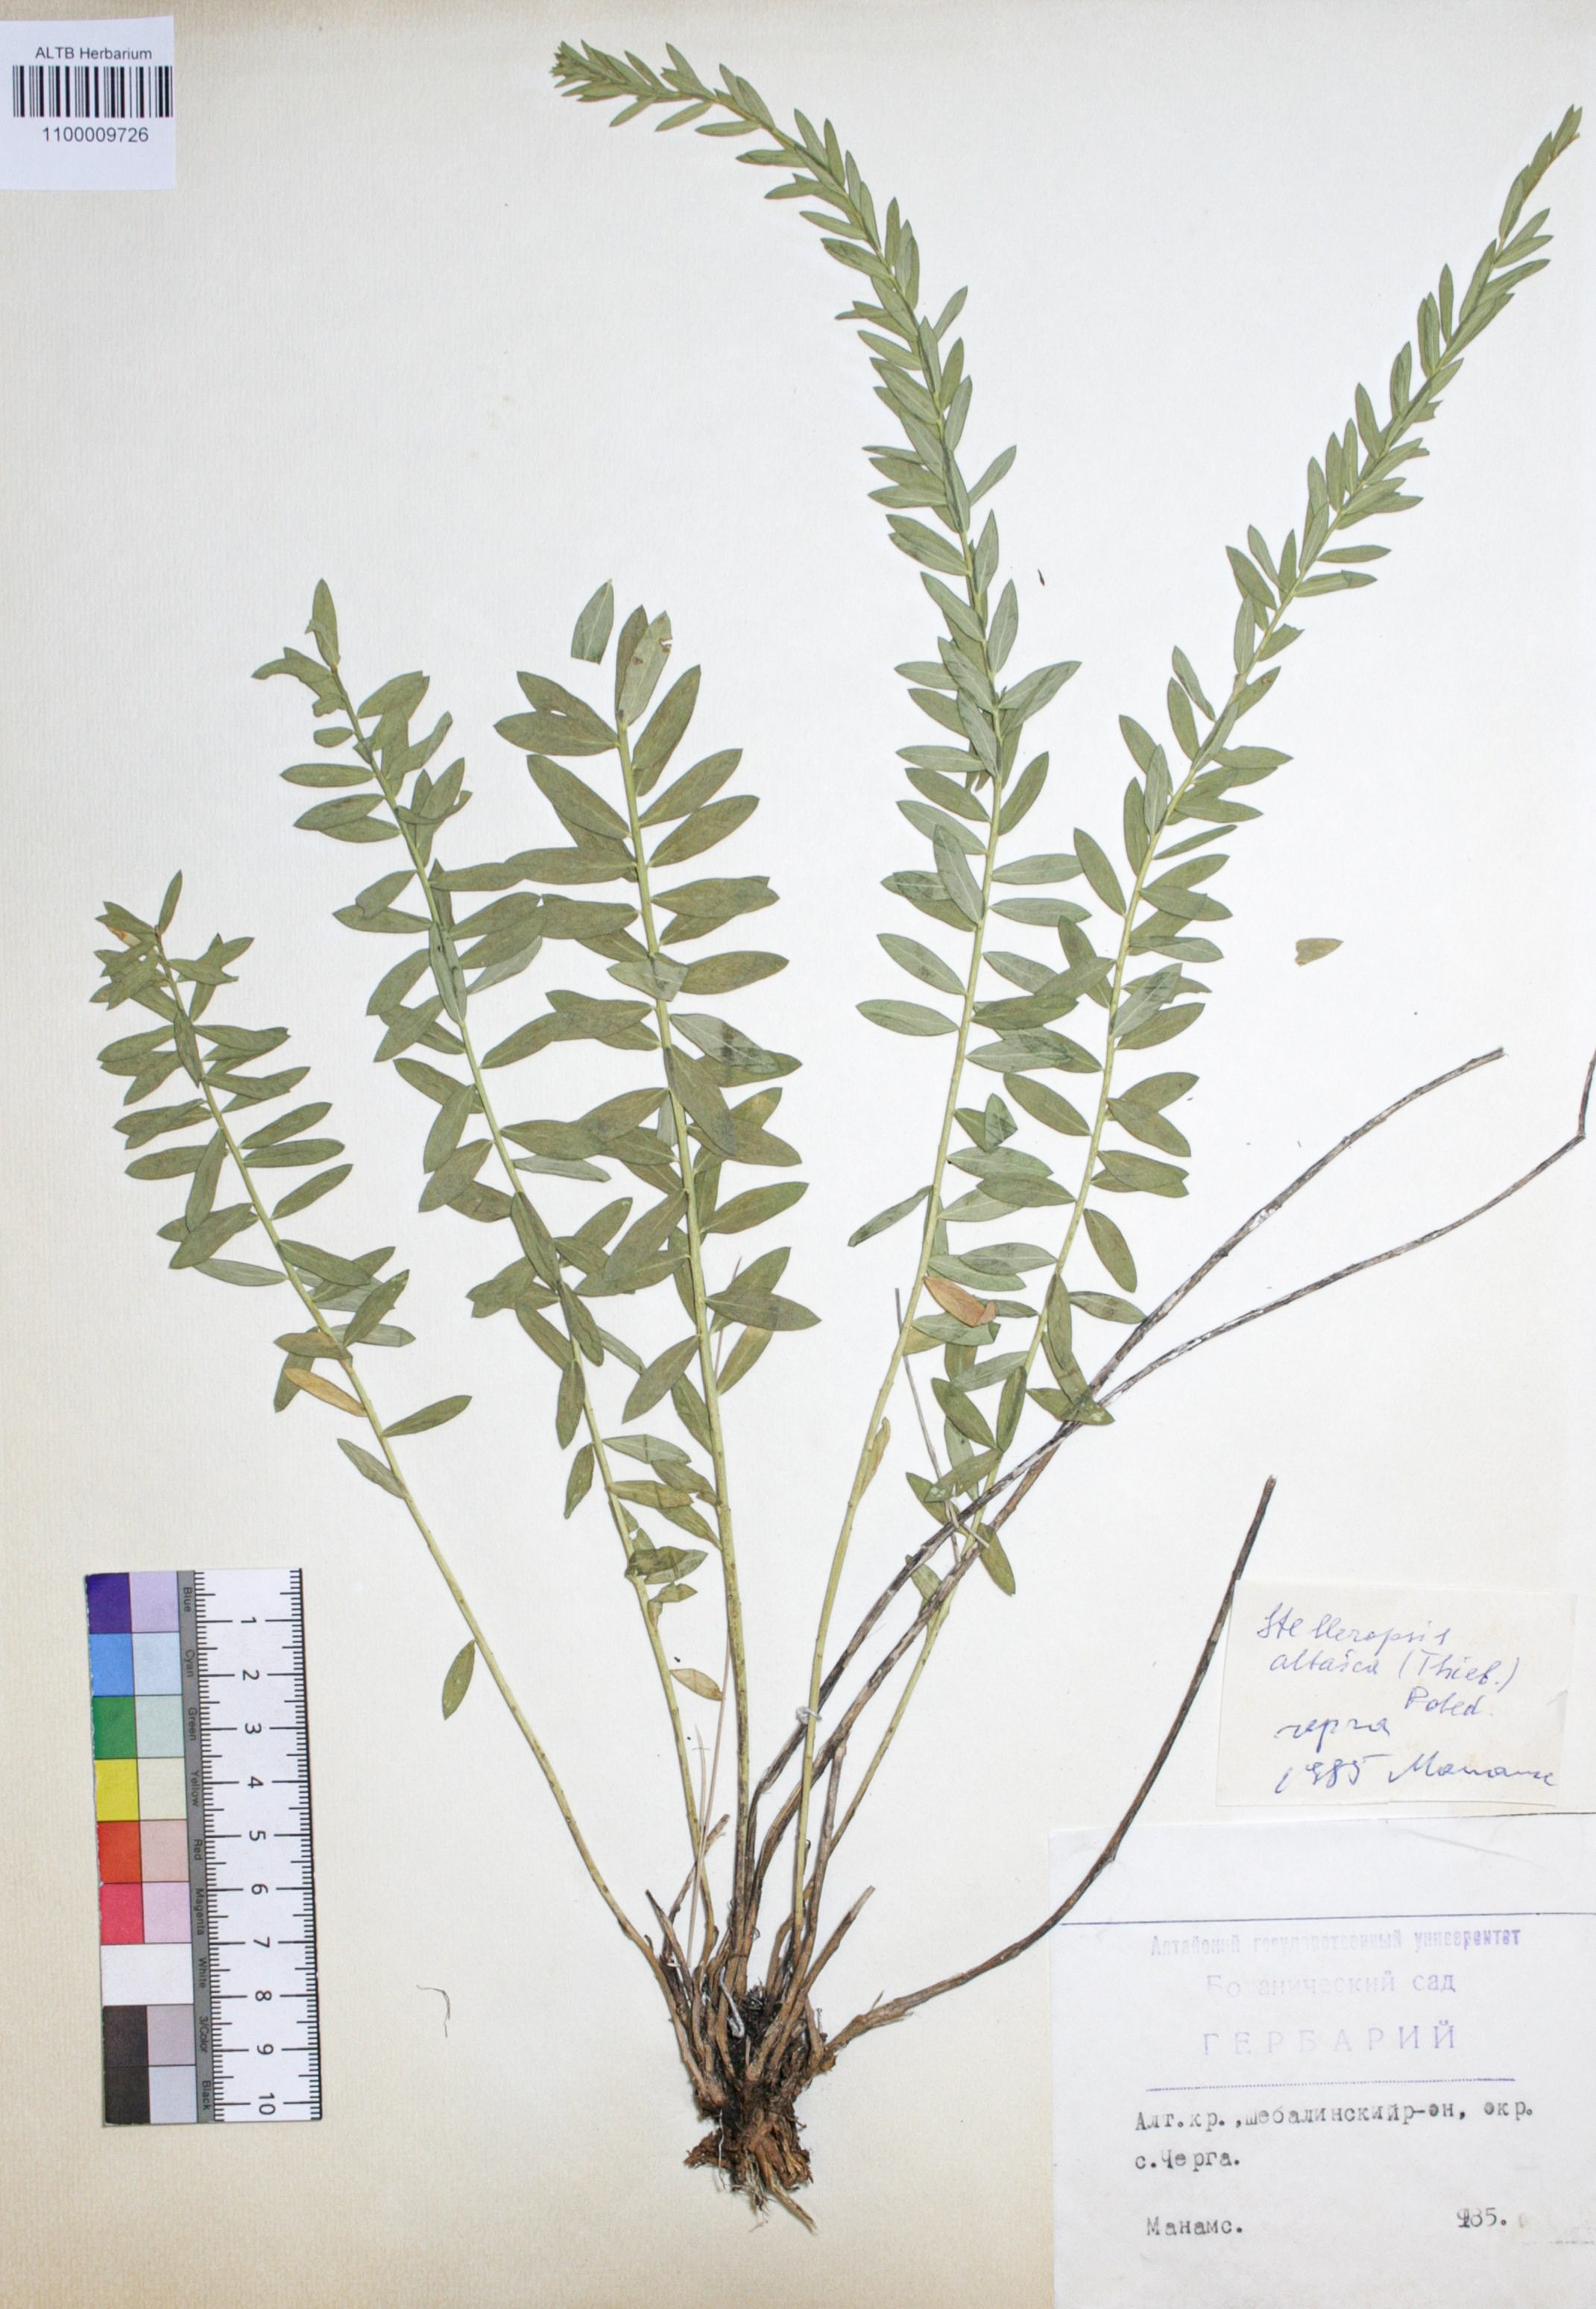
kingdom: Plantae
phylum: Tracheophyta
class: Magnoliopsida
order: Malvales
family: Thymelaeaceae
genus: Diarthron
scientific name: Diarthron altaicum
